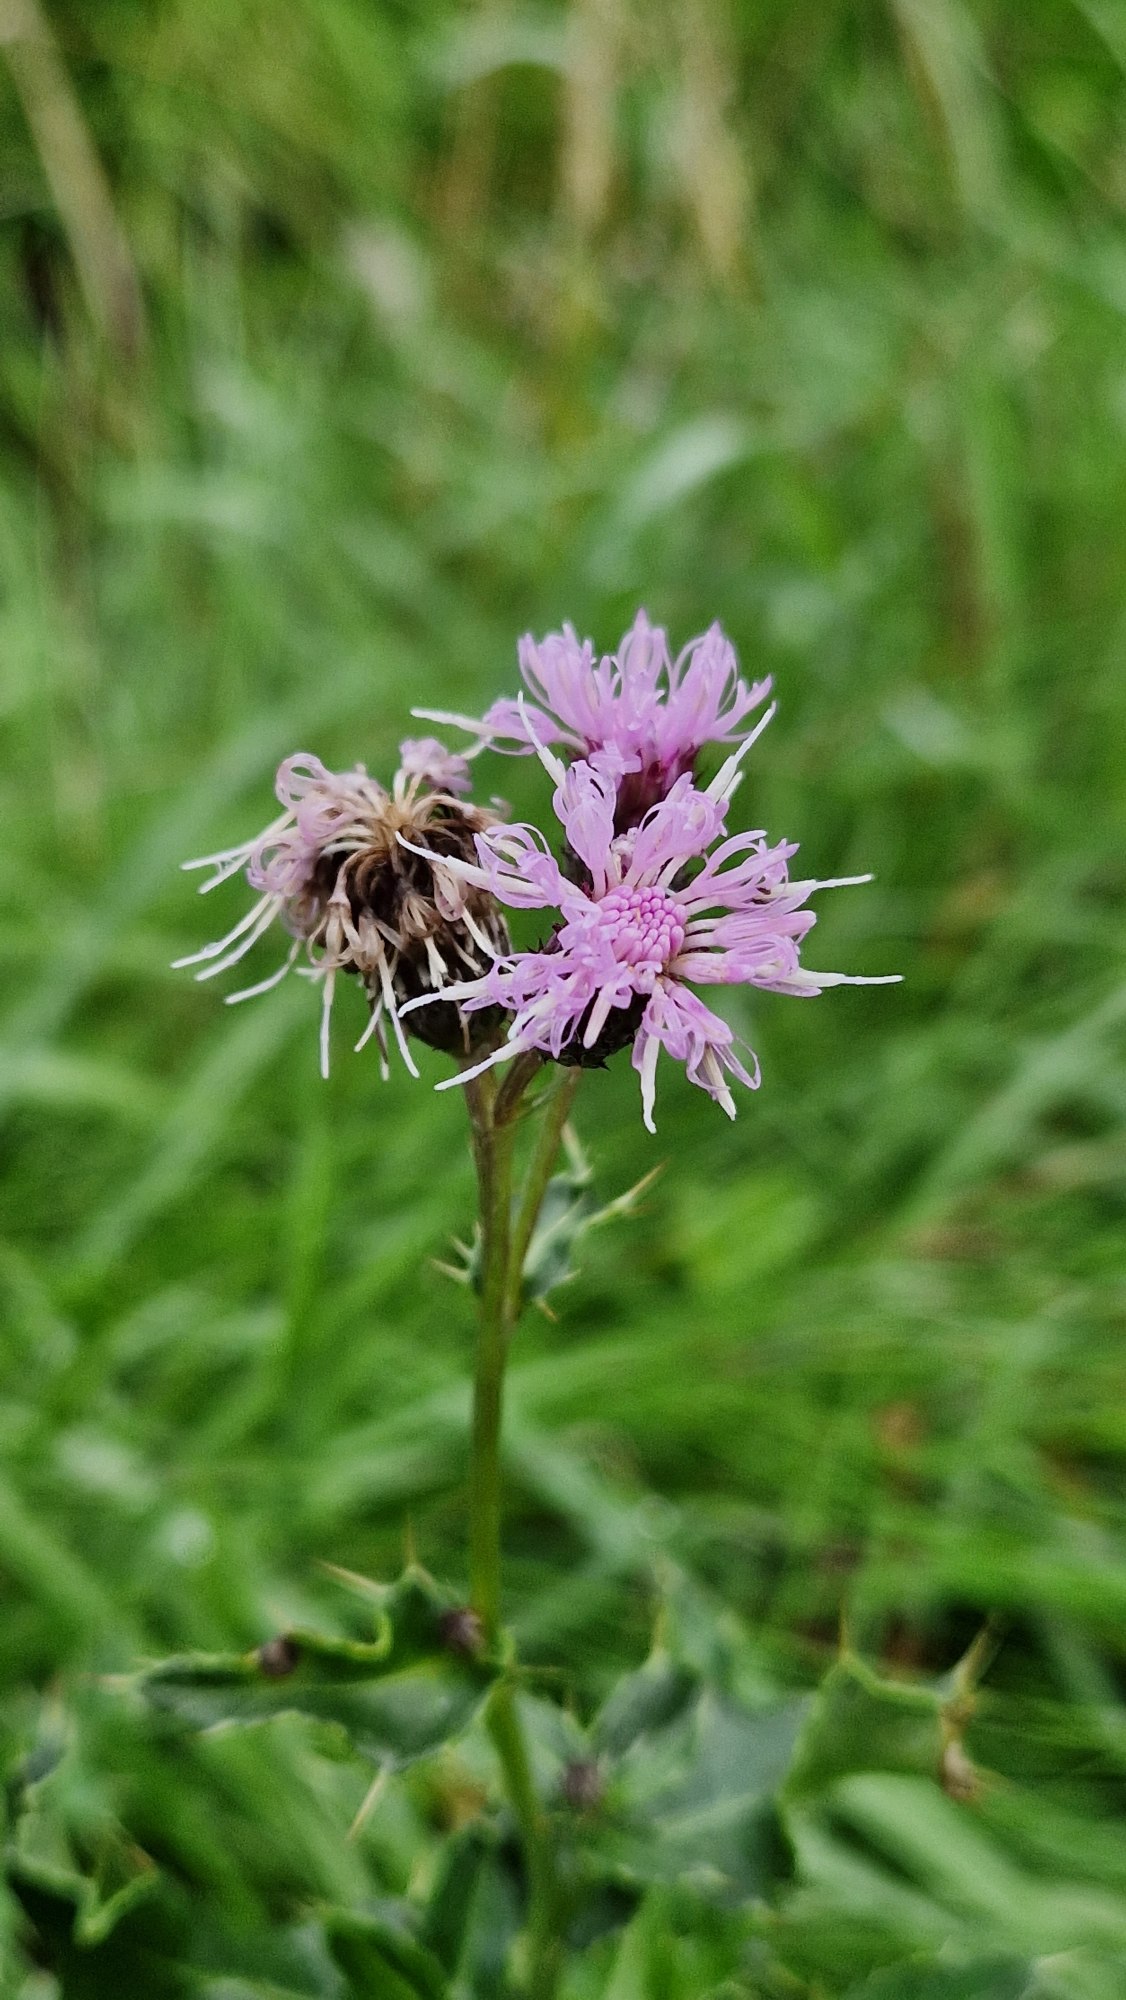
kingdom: Plantae
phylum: Tracheophyta
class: Magnoliopsida
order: Asterales
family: Asteraceae
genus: Cirsium
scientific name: Cirsium arvense
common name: Ager-tidsel
